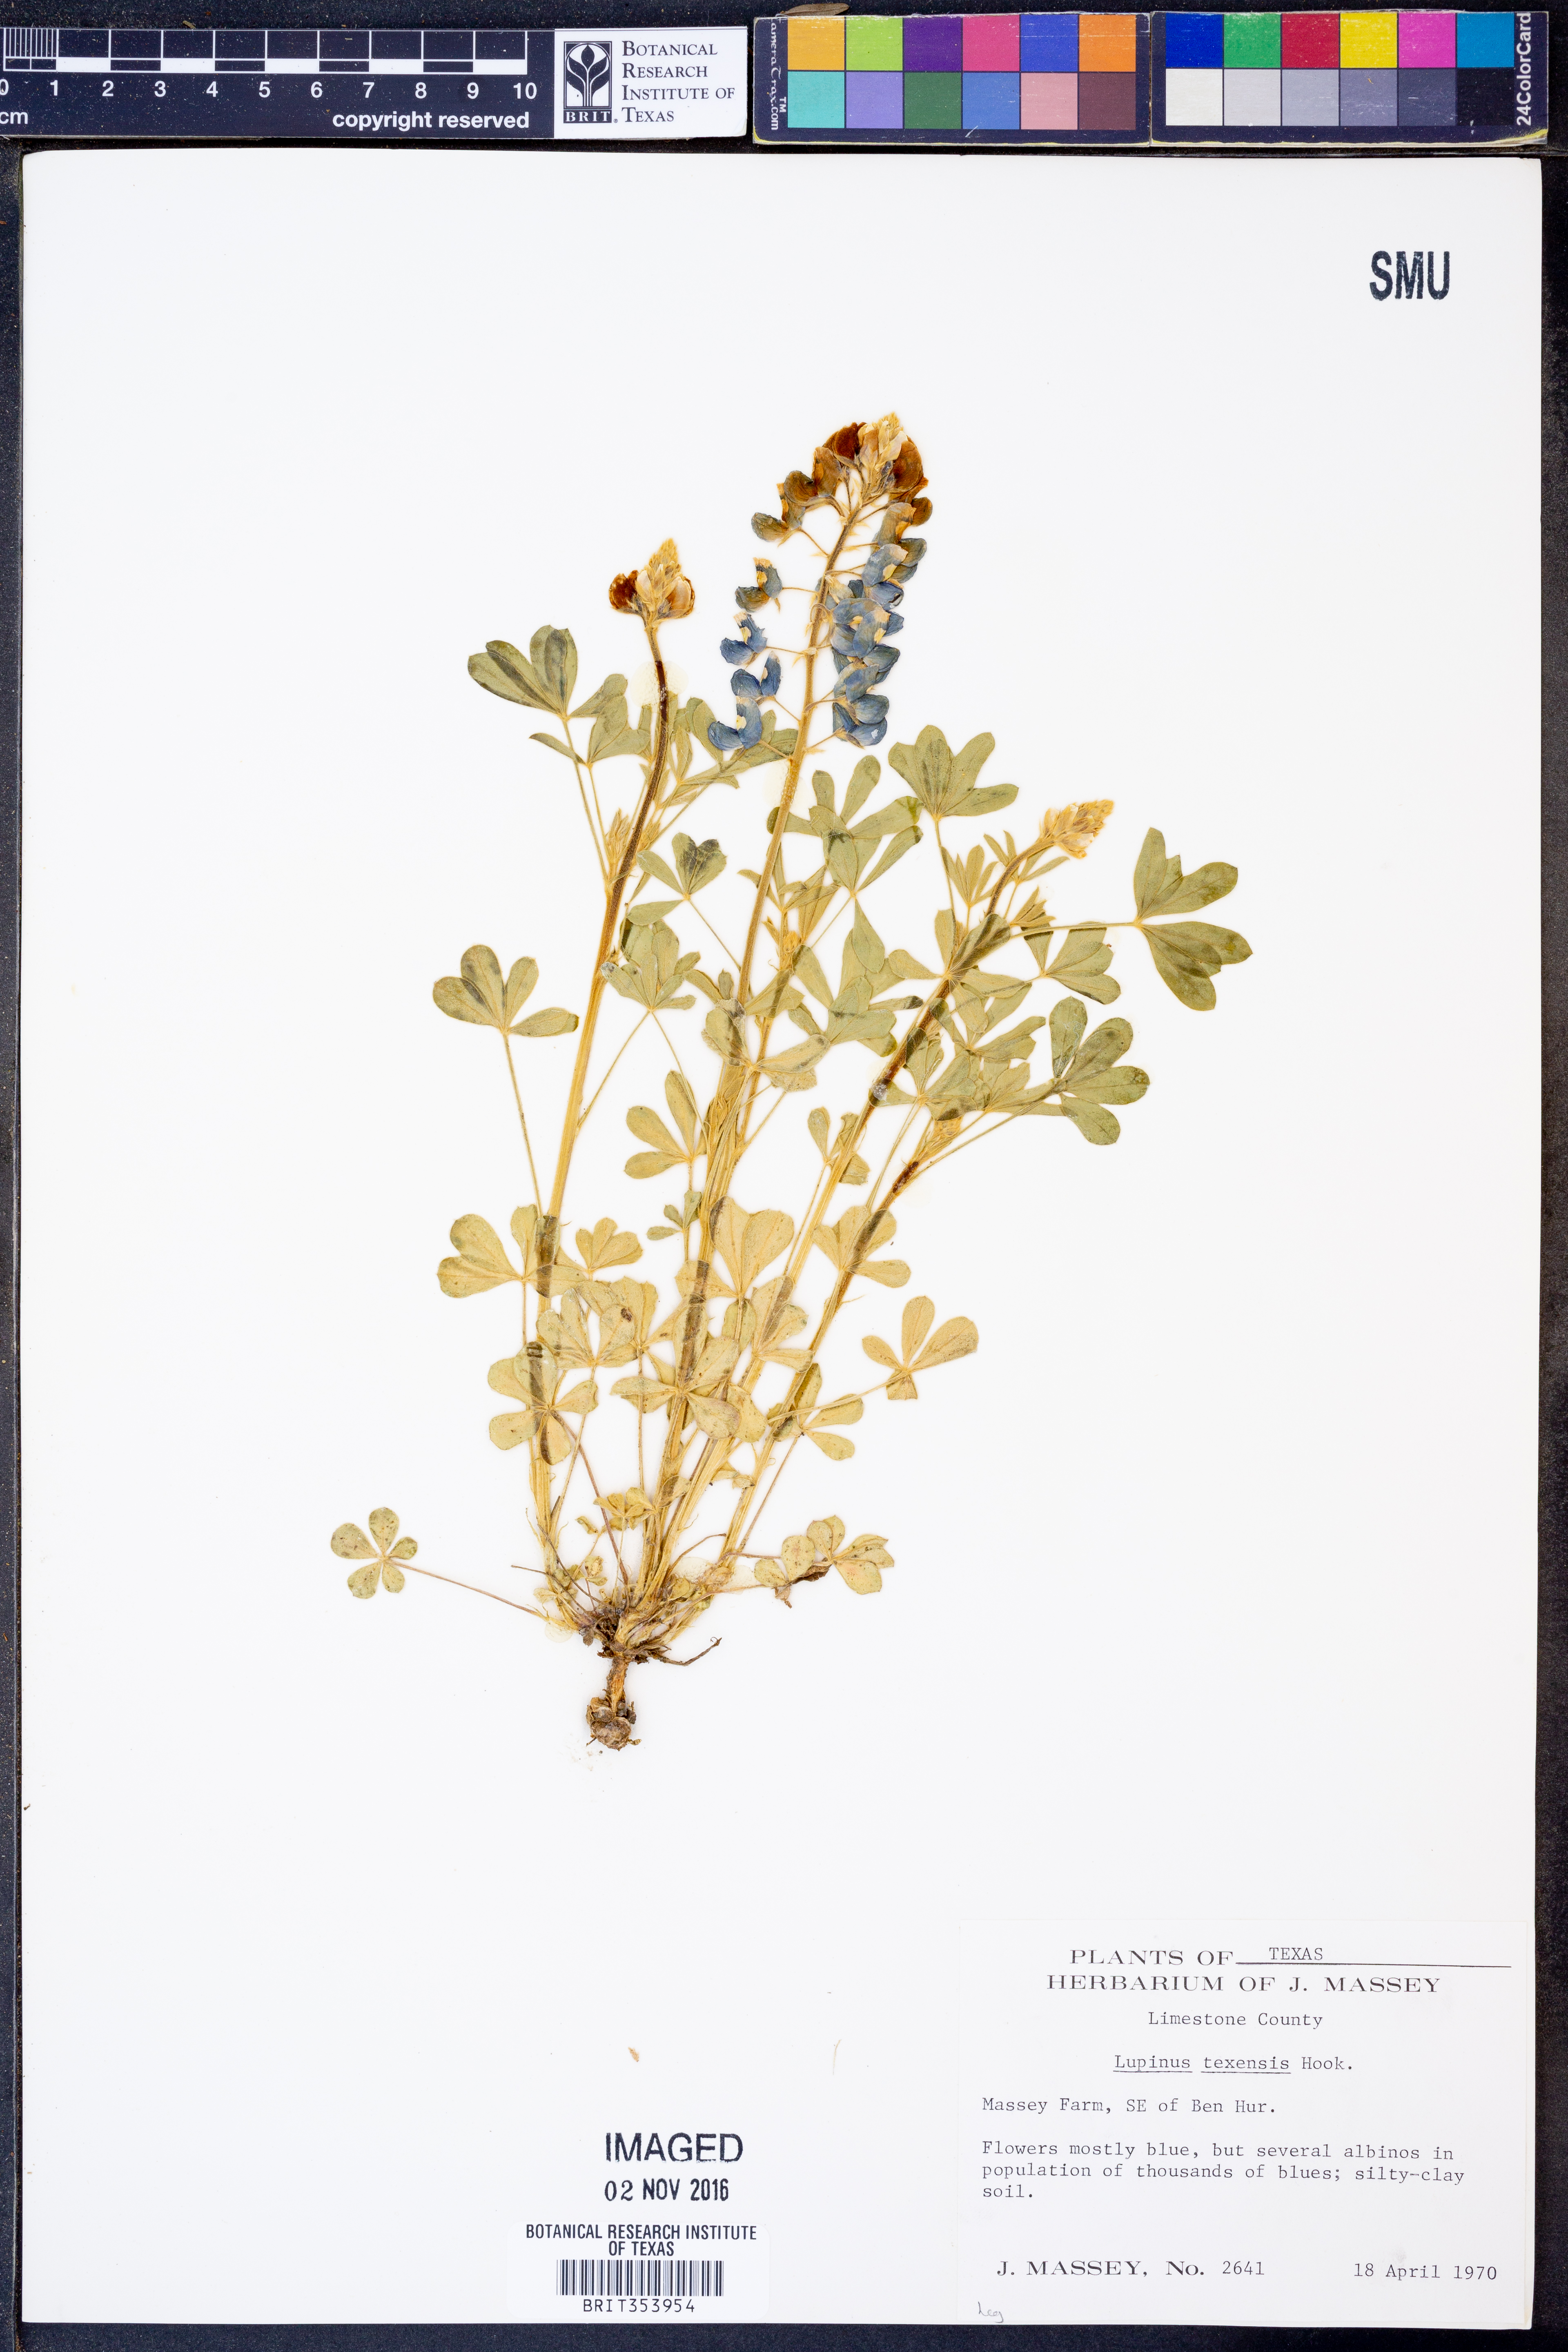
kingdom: Plantae
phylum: Tracheophyta
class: Magnoliopsida
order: Fabales
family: Fabaceae
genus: Lupinus
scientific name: Lupinus texensis
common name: Texas bluebonnet
